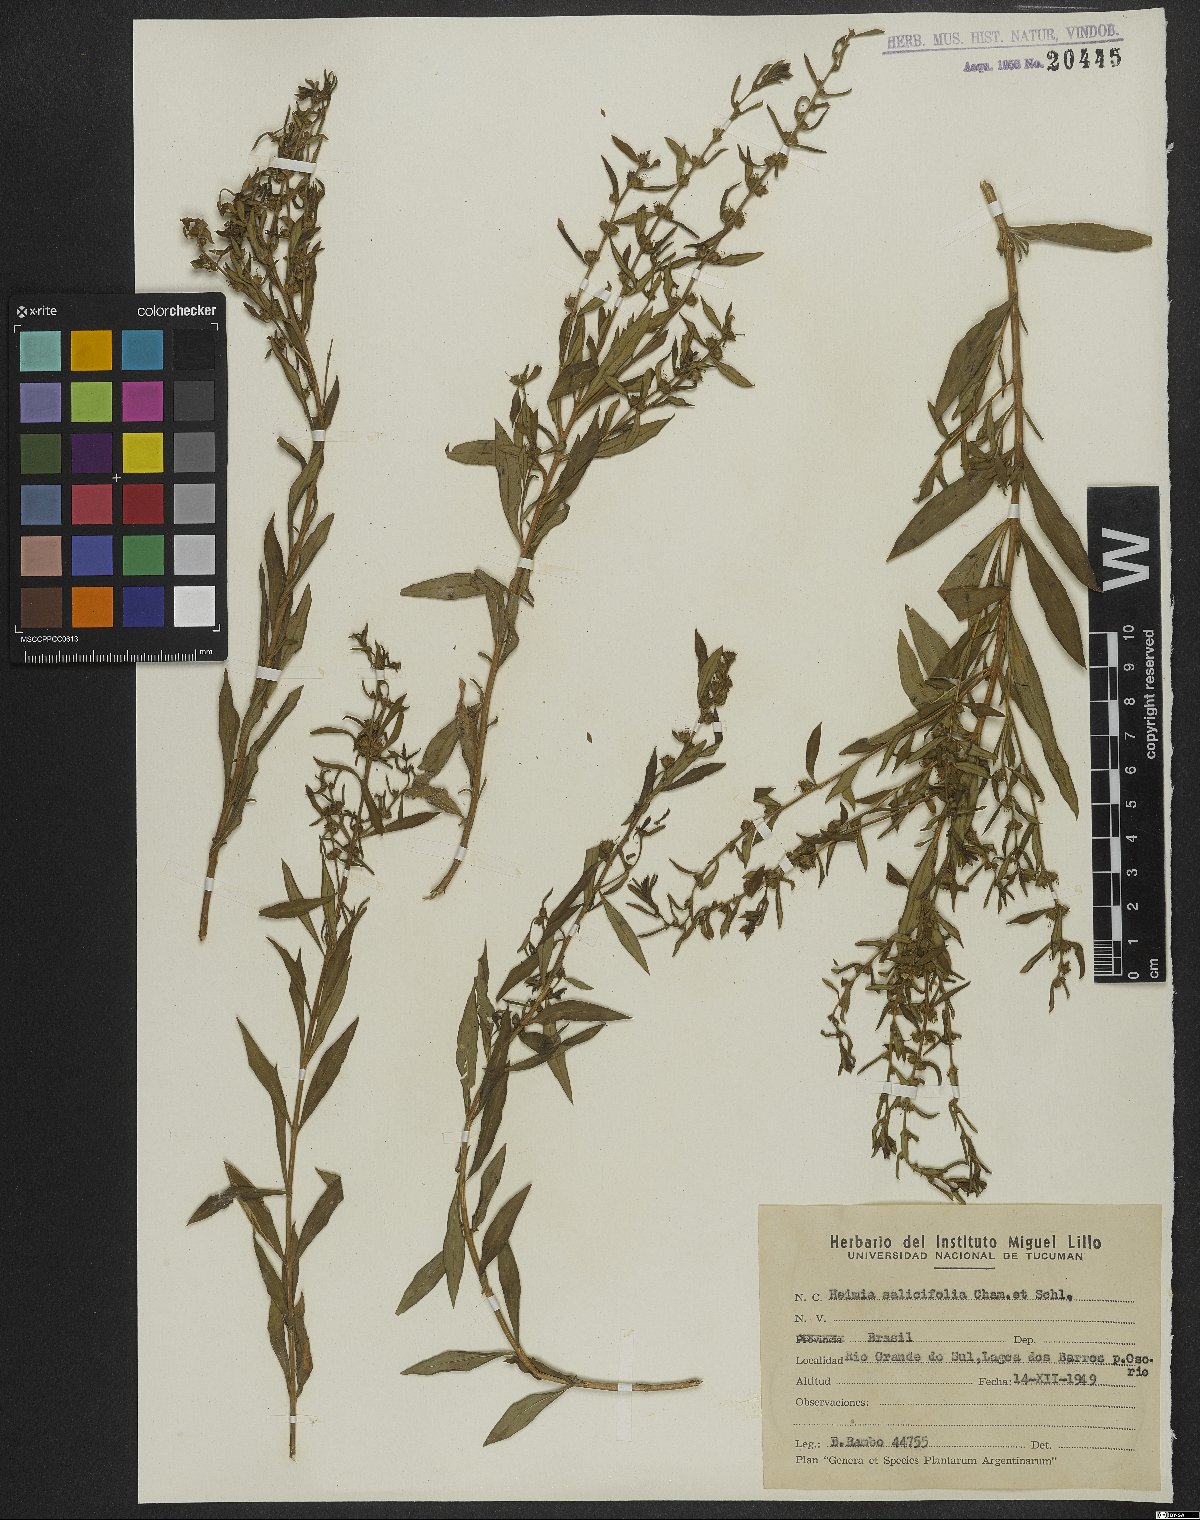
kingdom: Plantae
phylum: Tracheophyta
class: Magnoliopsida
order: Myrtales
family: Lythraceae
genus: Heimia
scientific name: Heimia salicifolia
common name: Willow-leaf heimia
